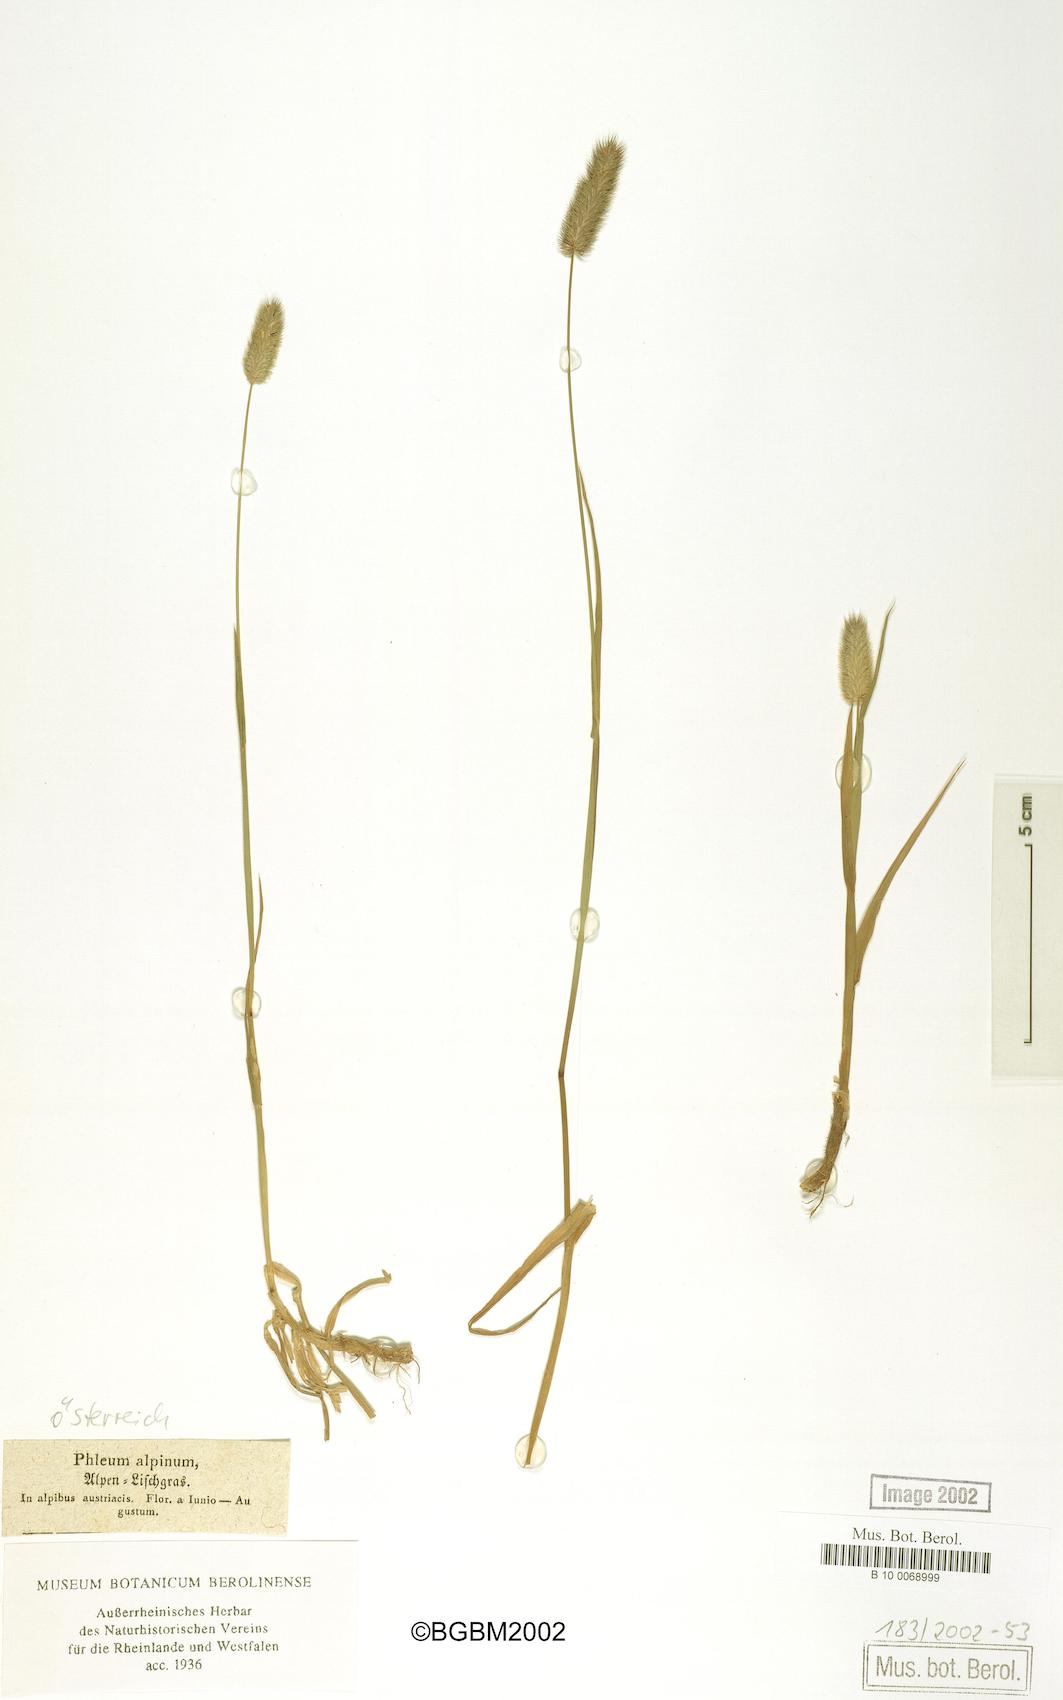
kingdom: Plantae
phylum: Tracheophyta
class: Liliopsida
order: Poales
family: Poaceae
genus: Phleum
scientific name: Phleum alpinum
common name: Alpine cat's-tail
